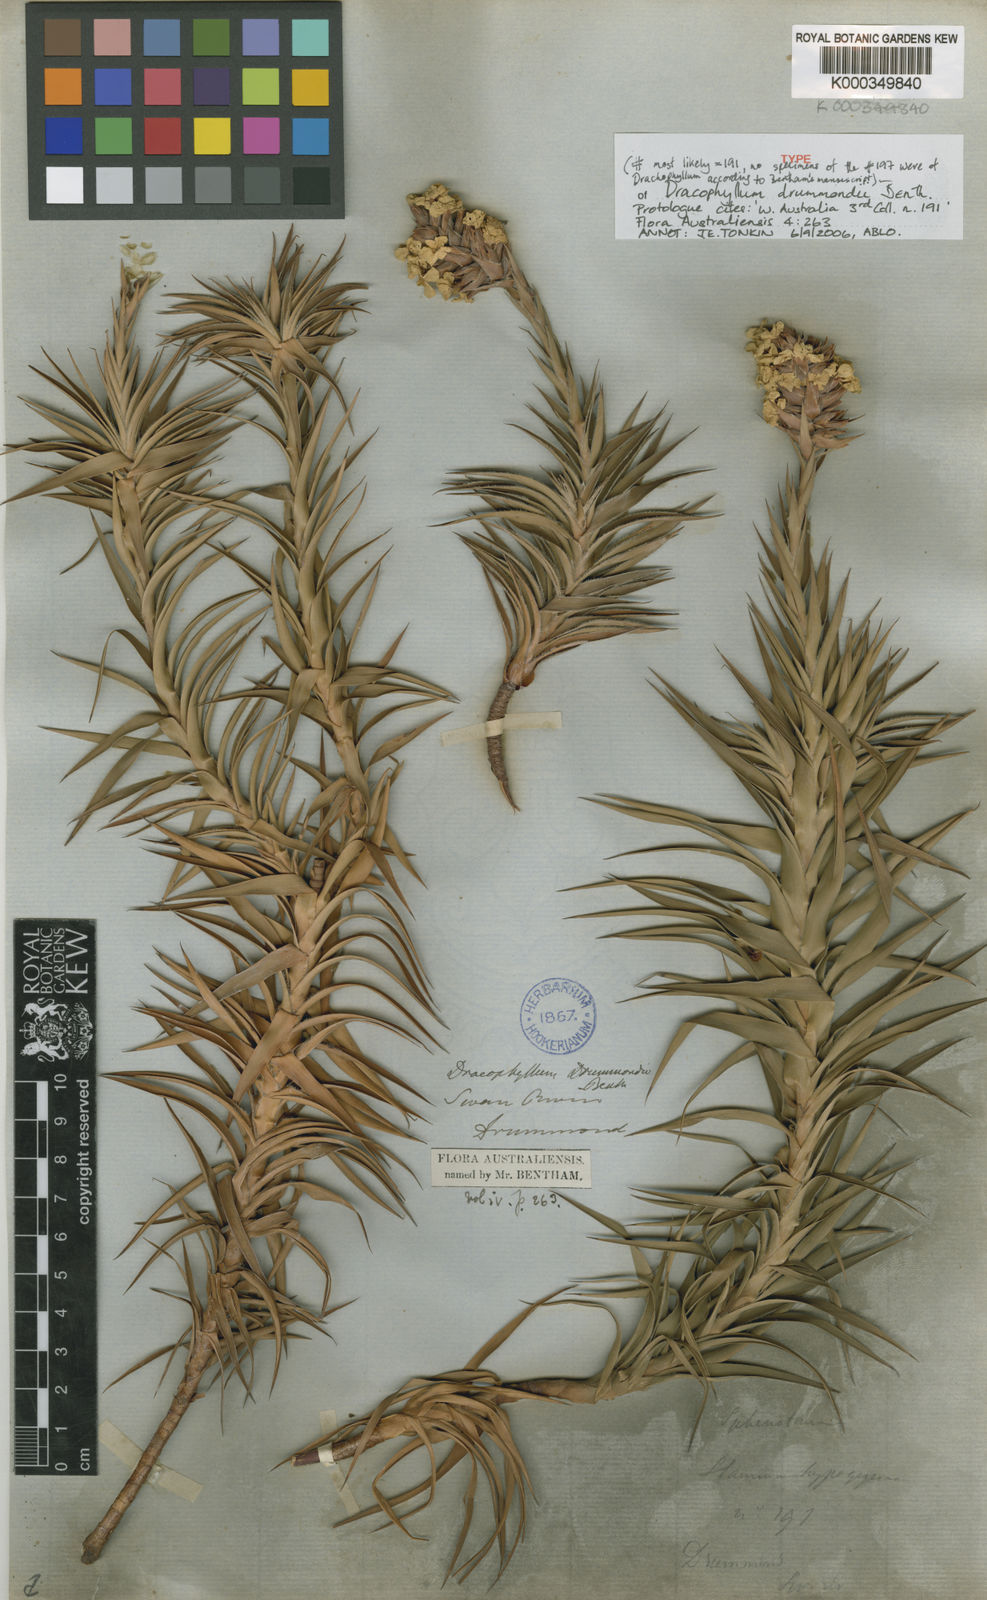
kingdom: Plantae
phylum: Tracheophyta
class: Magnoliopsida
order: Ericales
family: Ericaceae
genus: Sphenotoma
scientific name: Sphenotoma drummondii
